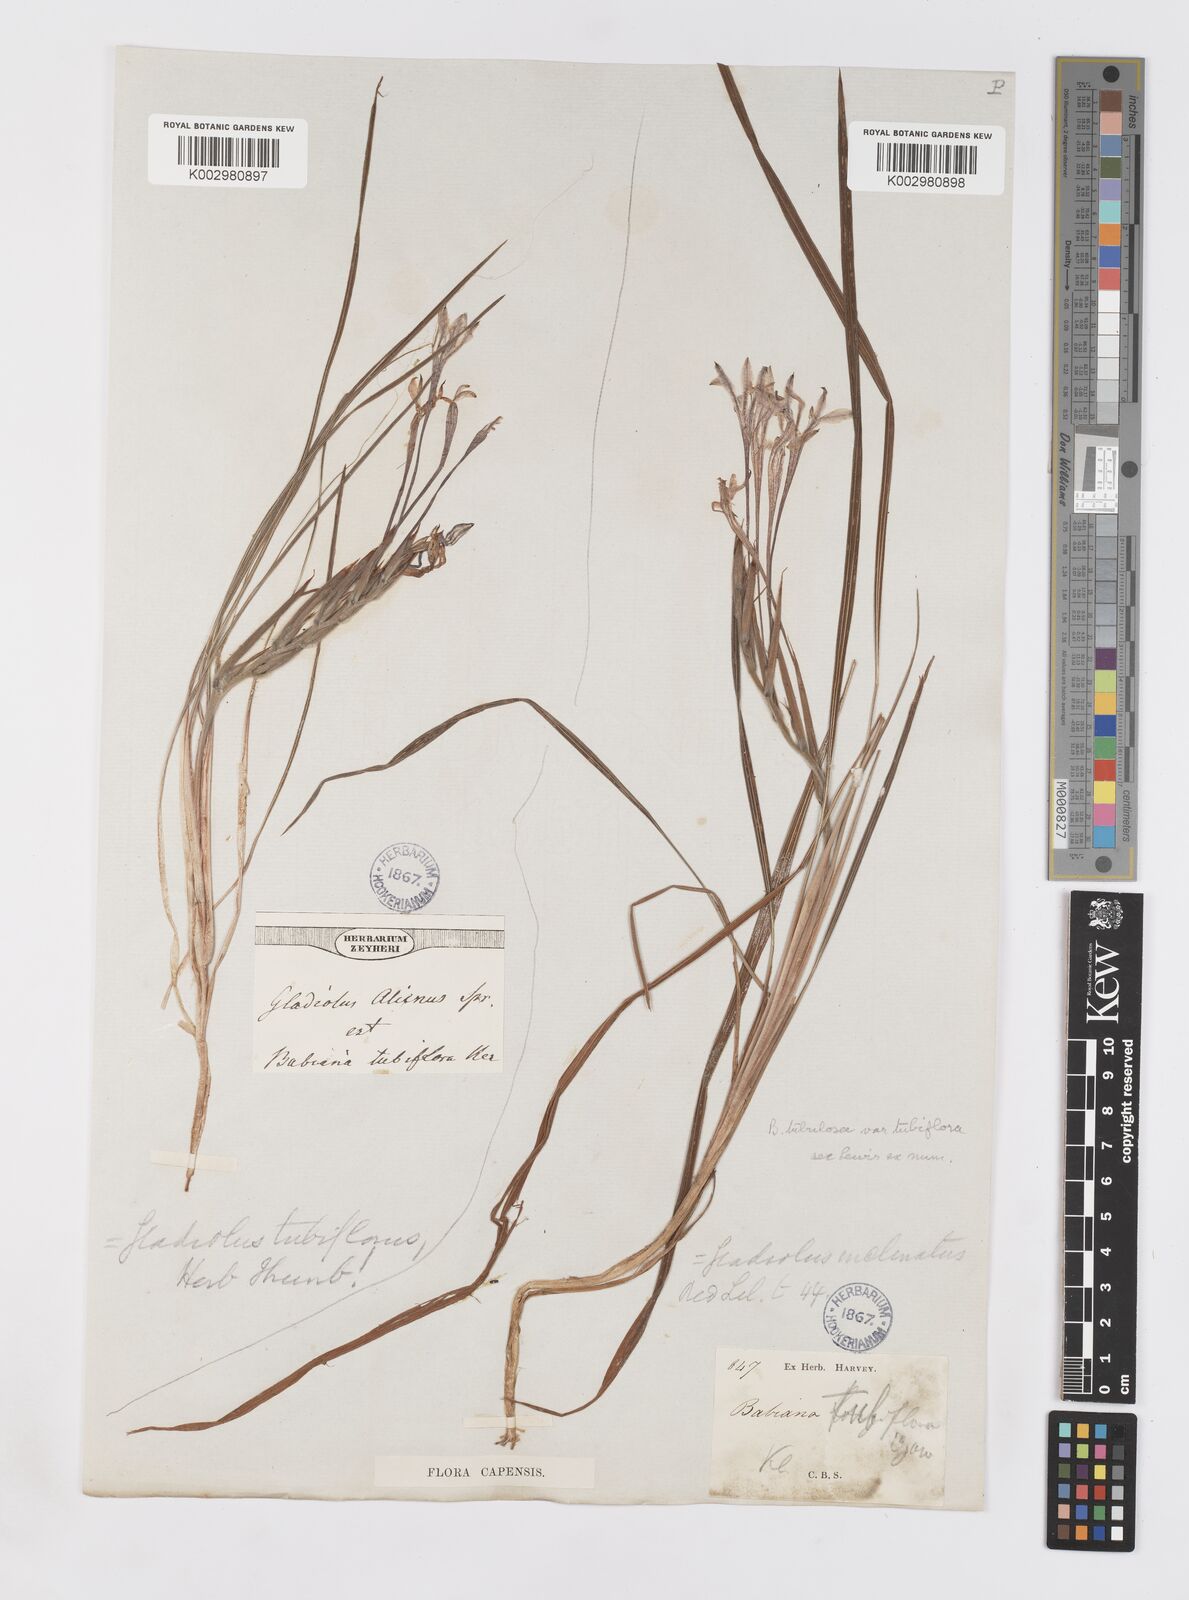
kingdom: Plantae
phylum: Tracheophyta
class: Liliopsida
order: Asparagales
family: Iridaceae
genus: Babiana
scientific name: Babiana tubiflora
